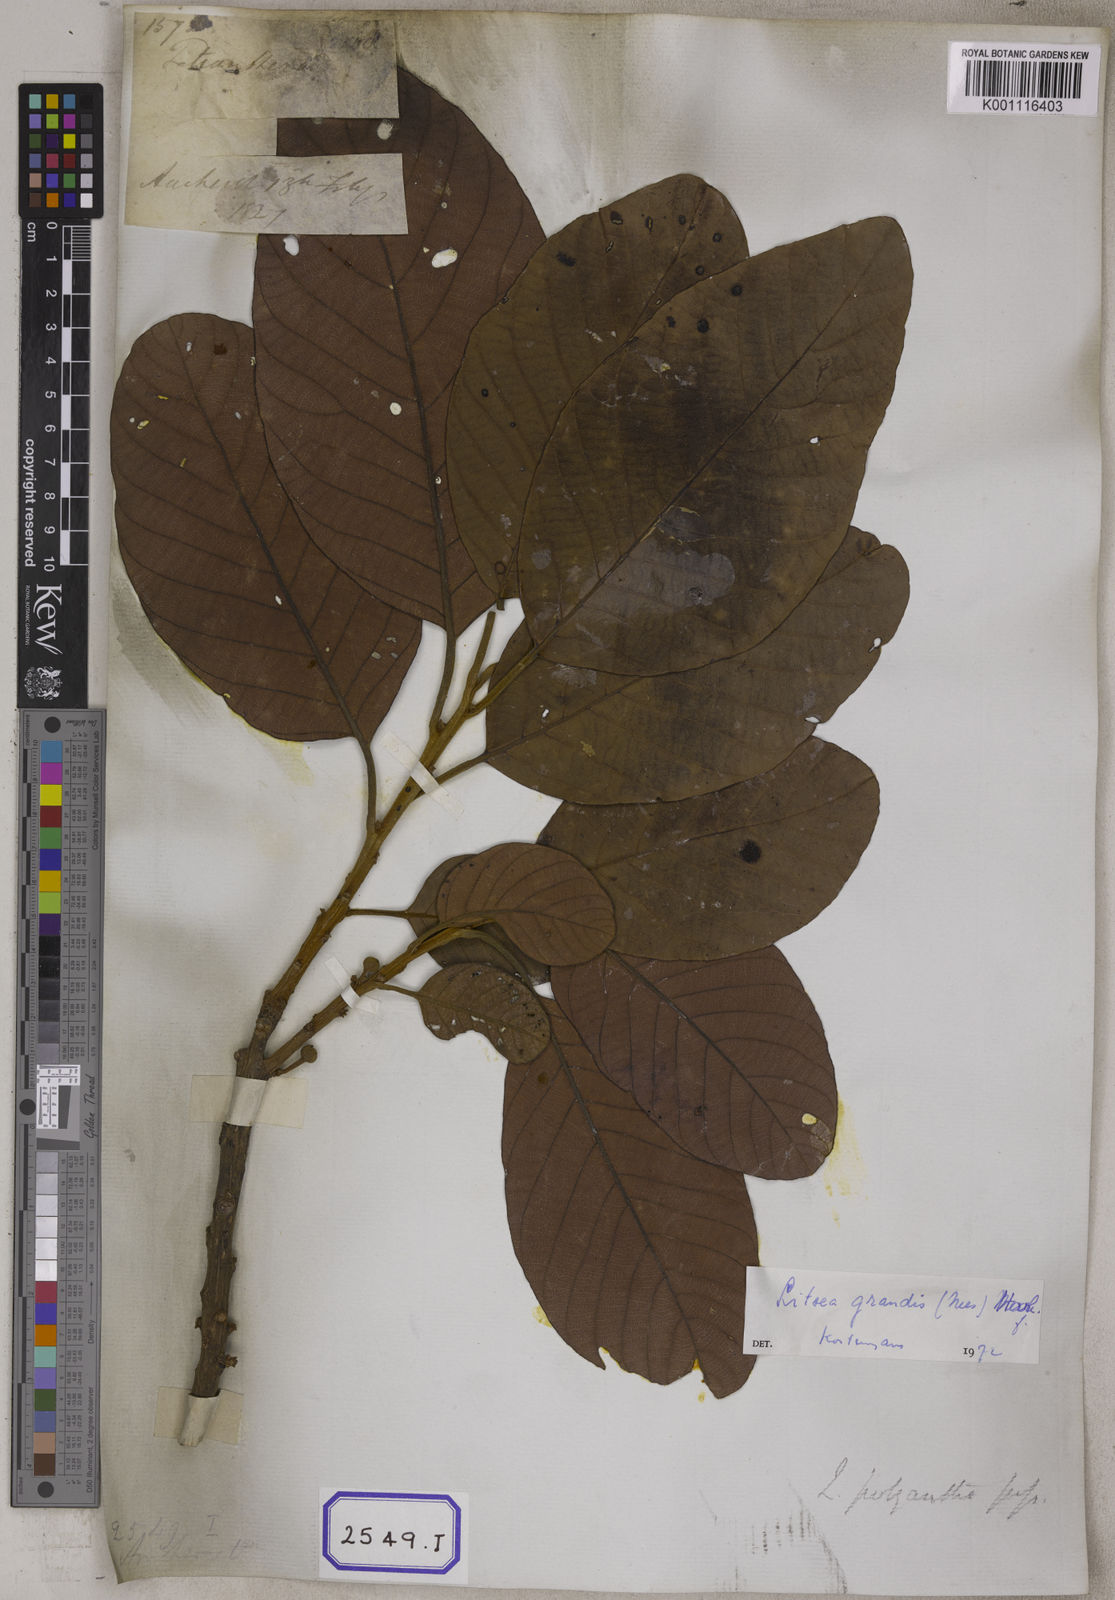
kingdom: Plantae
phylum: Tracheophyta
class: Magnoliopsida
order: Laurales
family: Lauraceae
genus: Litsea
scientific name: Litsea
